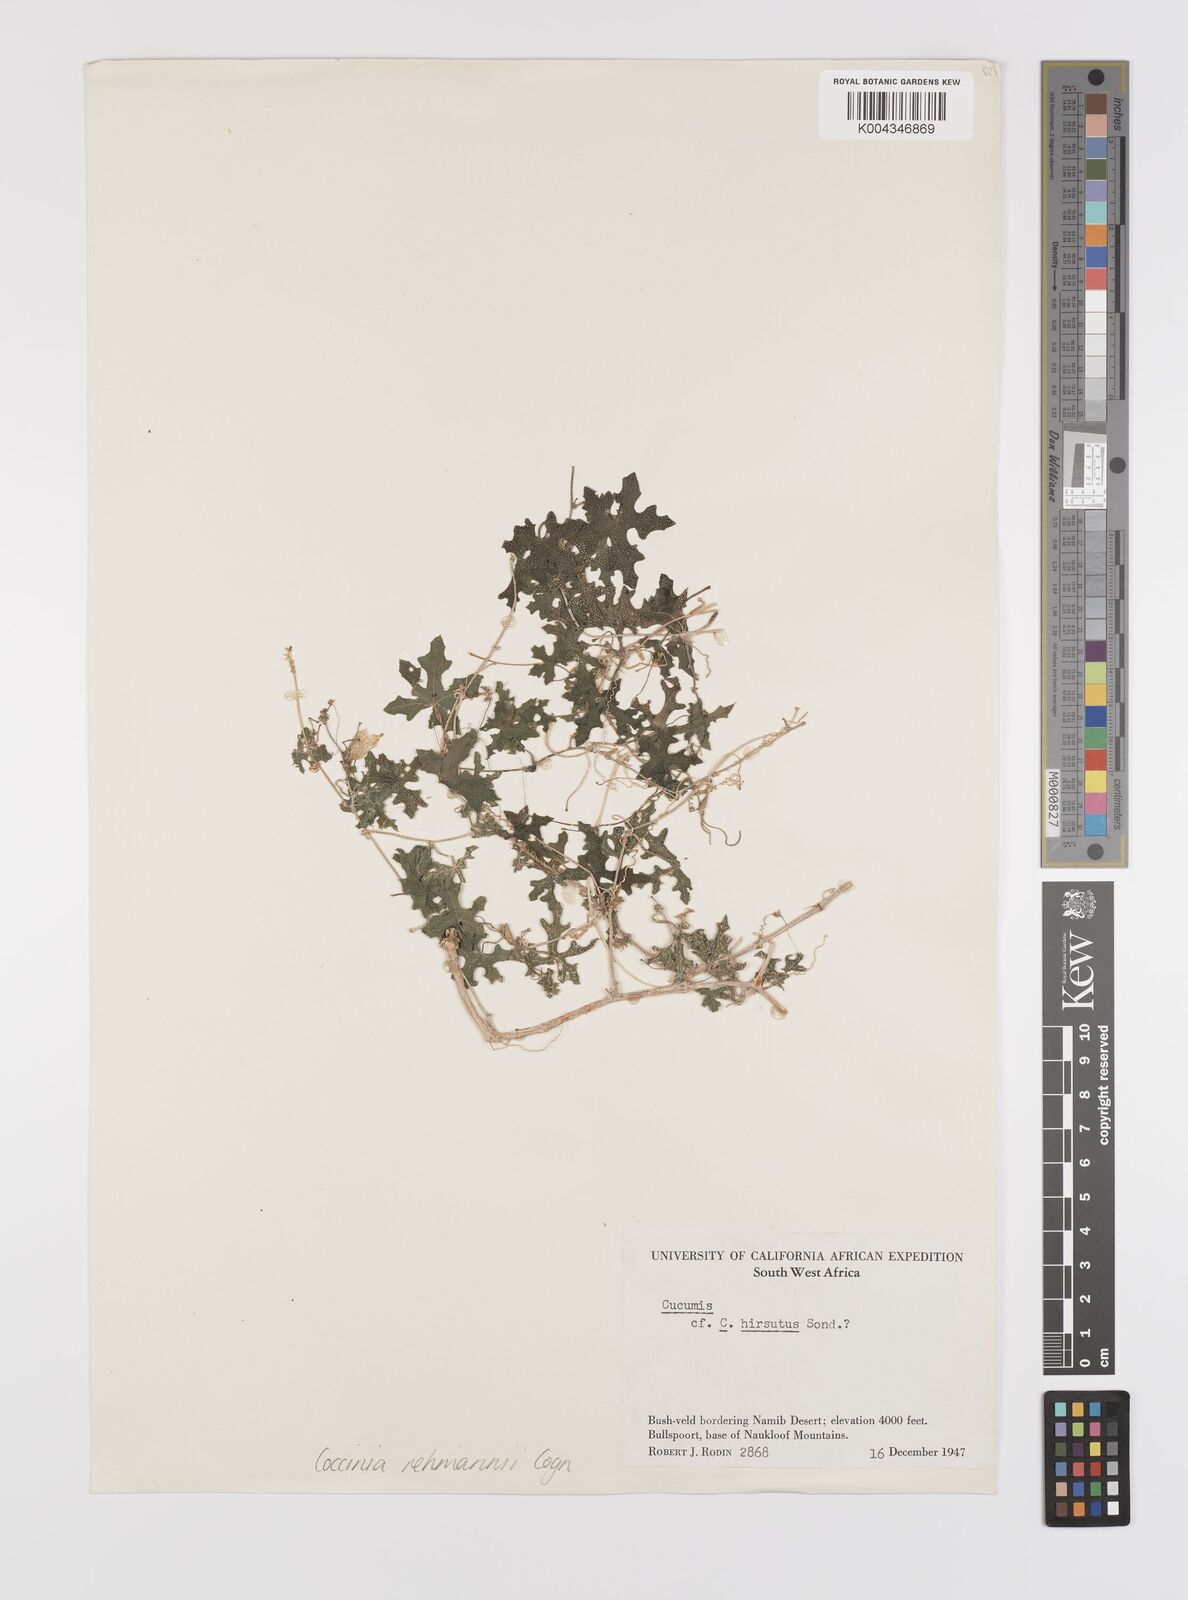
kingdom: Plantae
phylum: Tracheophyta
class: Magnoliopsida
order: Cucurbitales
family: Cucurbitaceae
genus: Coccinia
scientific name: Coccinia rehmannii
